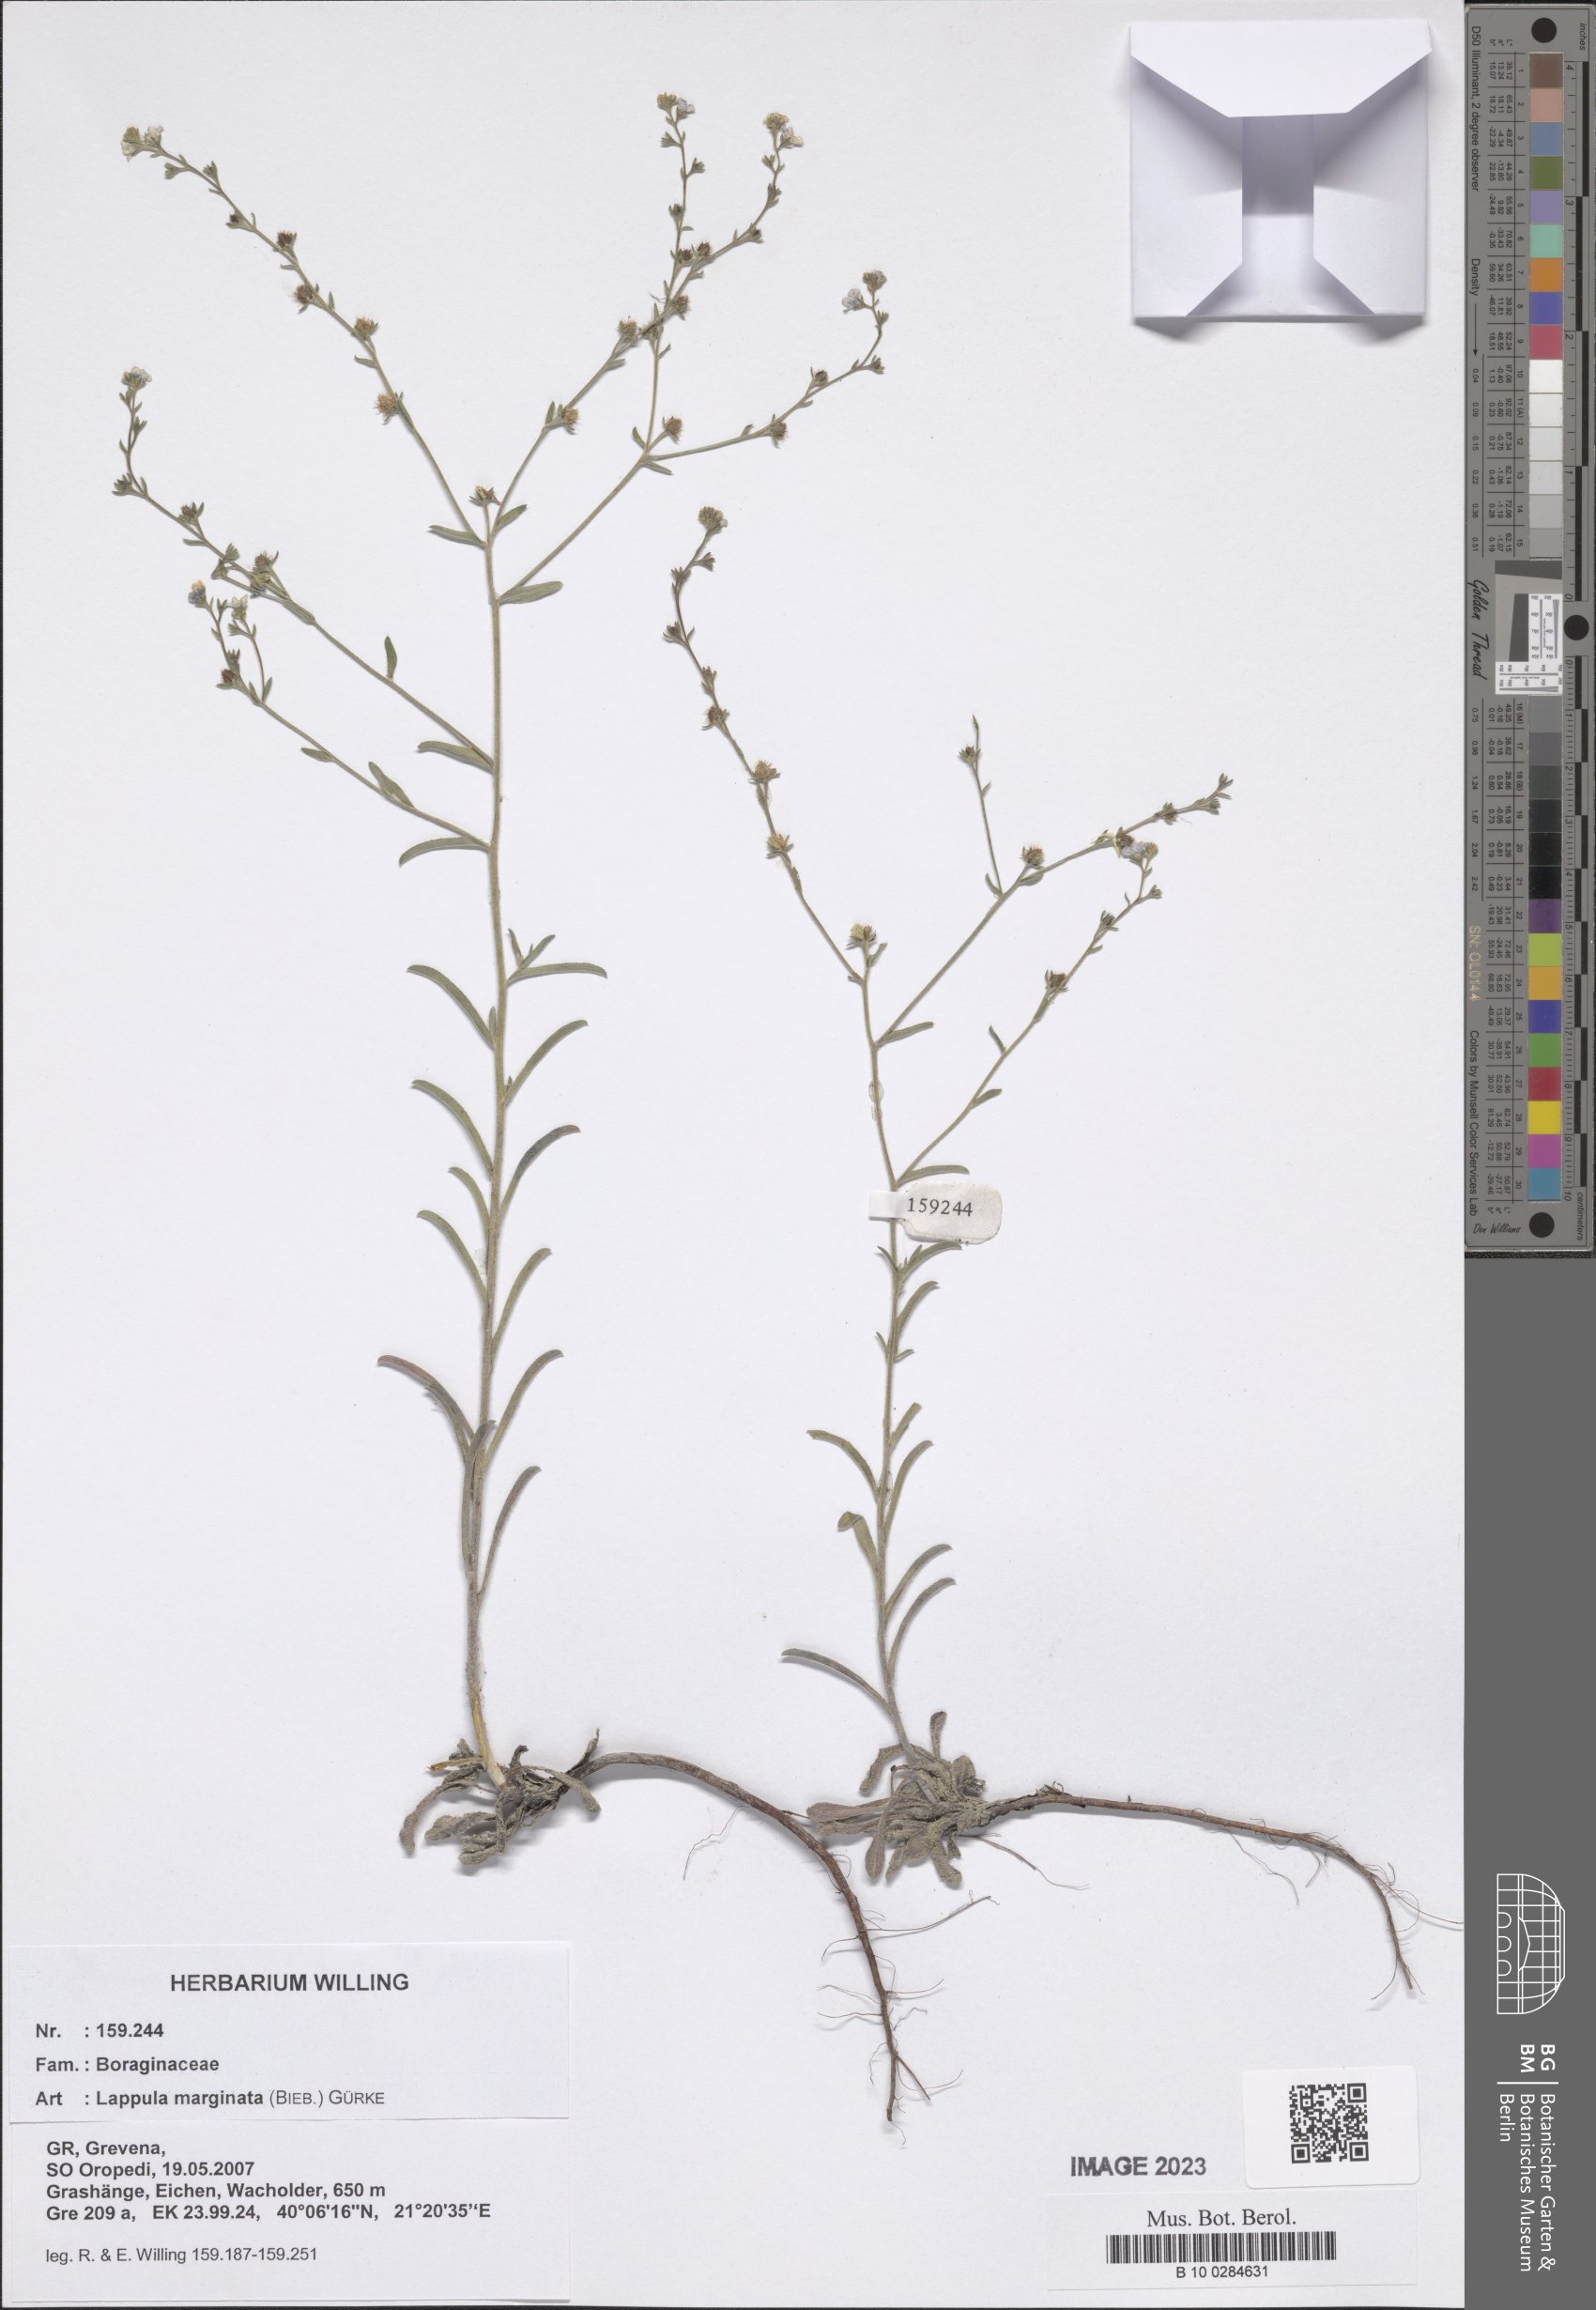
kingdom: Plantae
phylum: Tracheophyta
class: Magnoliopsida
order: Boraginales
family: Boraginaceae
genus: Lappula
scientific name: Lappula marginata
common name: Margined stickseed
